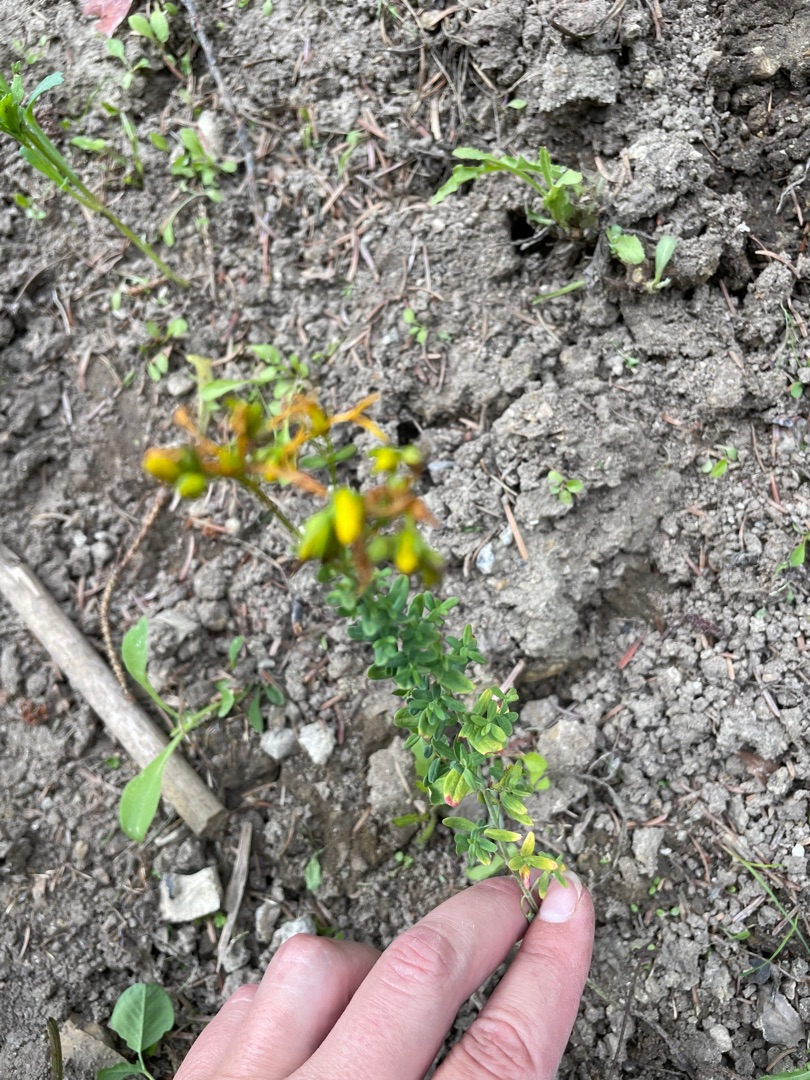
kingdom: Plantae
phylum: Tracheophyta
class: Magnoliopsida
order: Malpighiales
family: Hypericaceae
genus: Hypericum
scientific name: Hypericum
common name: Perikonslægten
